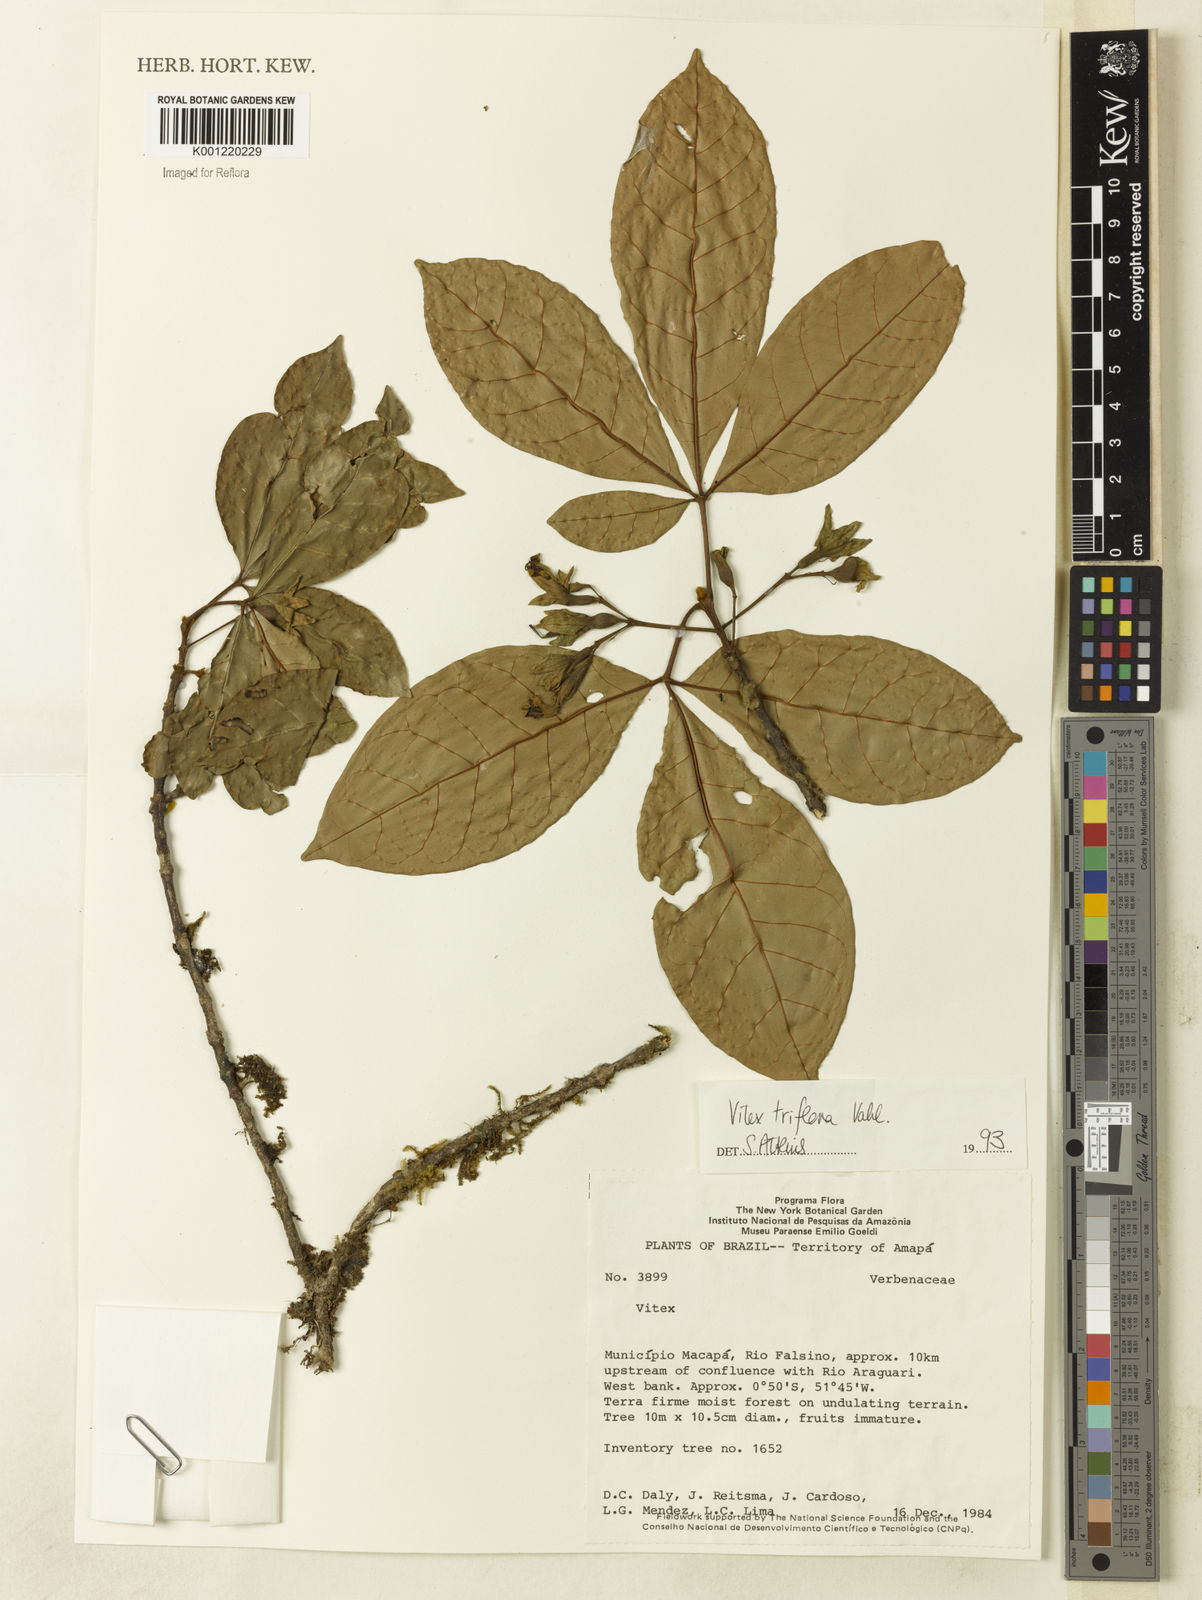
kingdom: Plantae
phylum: Tracheophyta
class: Magnoliopsida
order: Lamiales
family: Lamiaceae
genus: Vitex
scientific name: Vitex triflora
